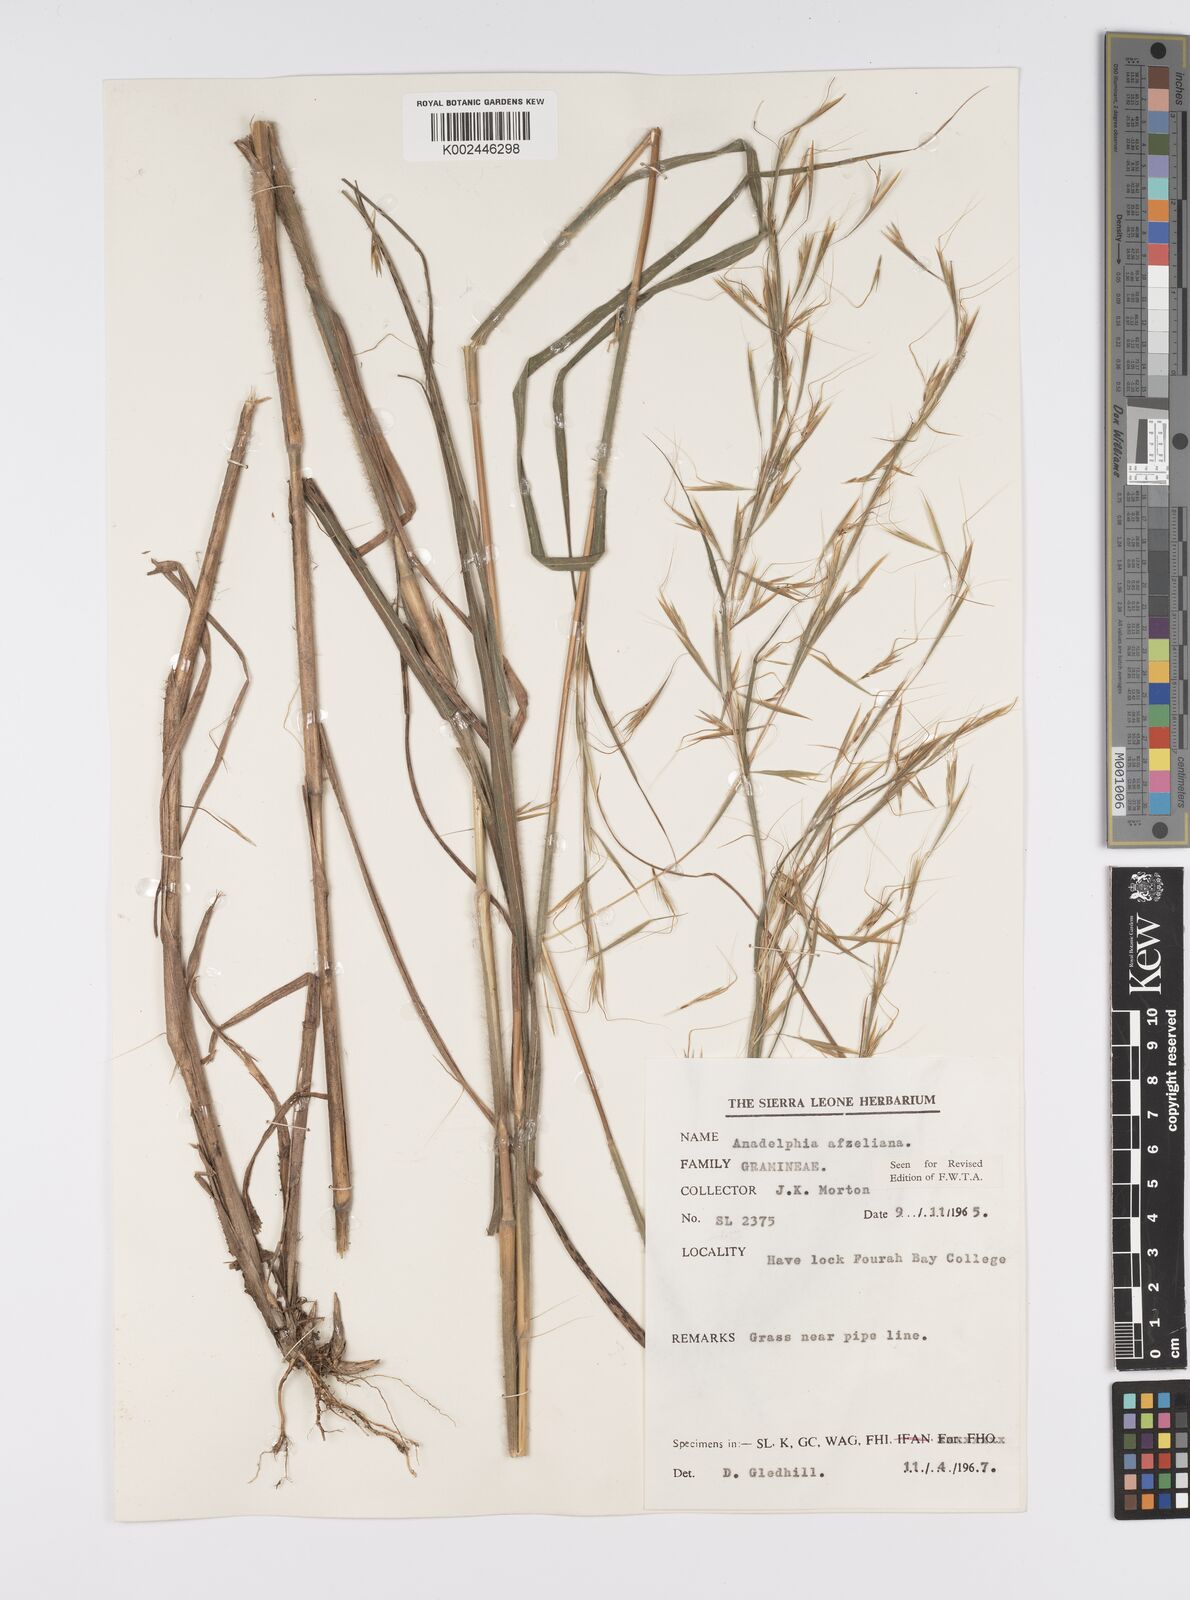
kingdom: Plantae
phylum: Tracheophyta
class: Liliopsida
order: Poales
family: Poaceae
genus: Anadelphia
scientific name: Anadelphia afzeliana
